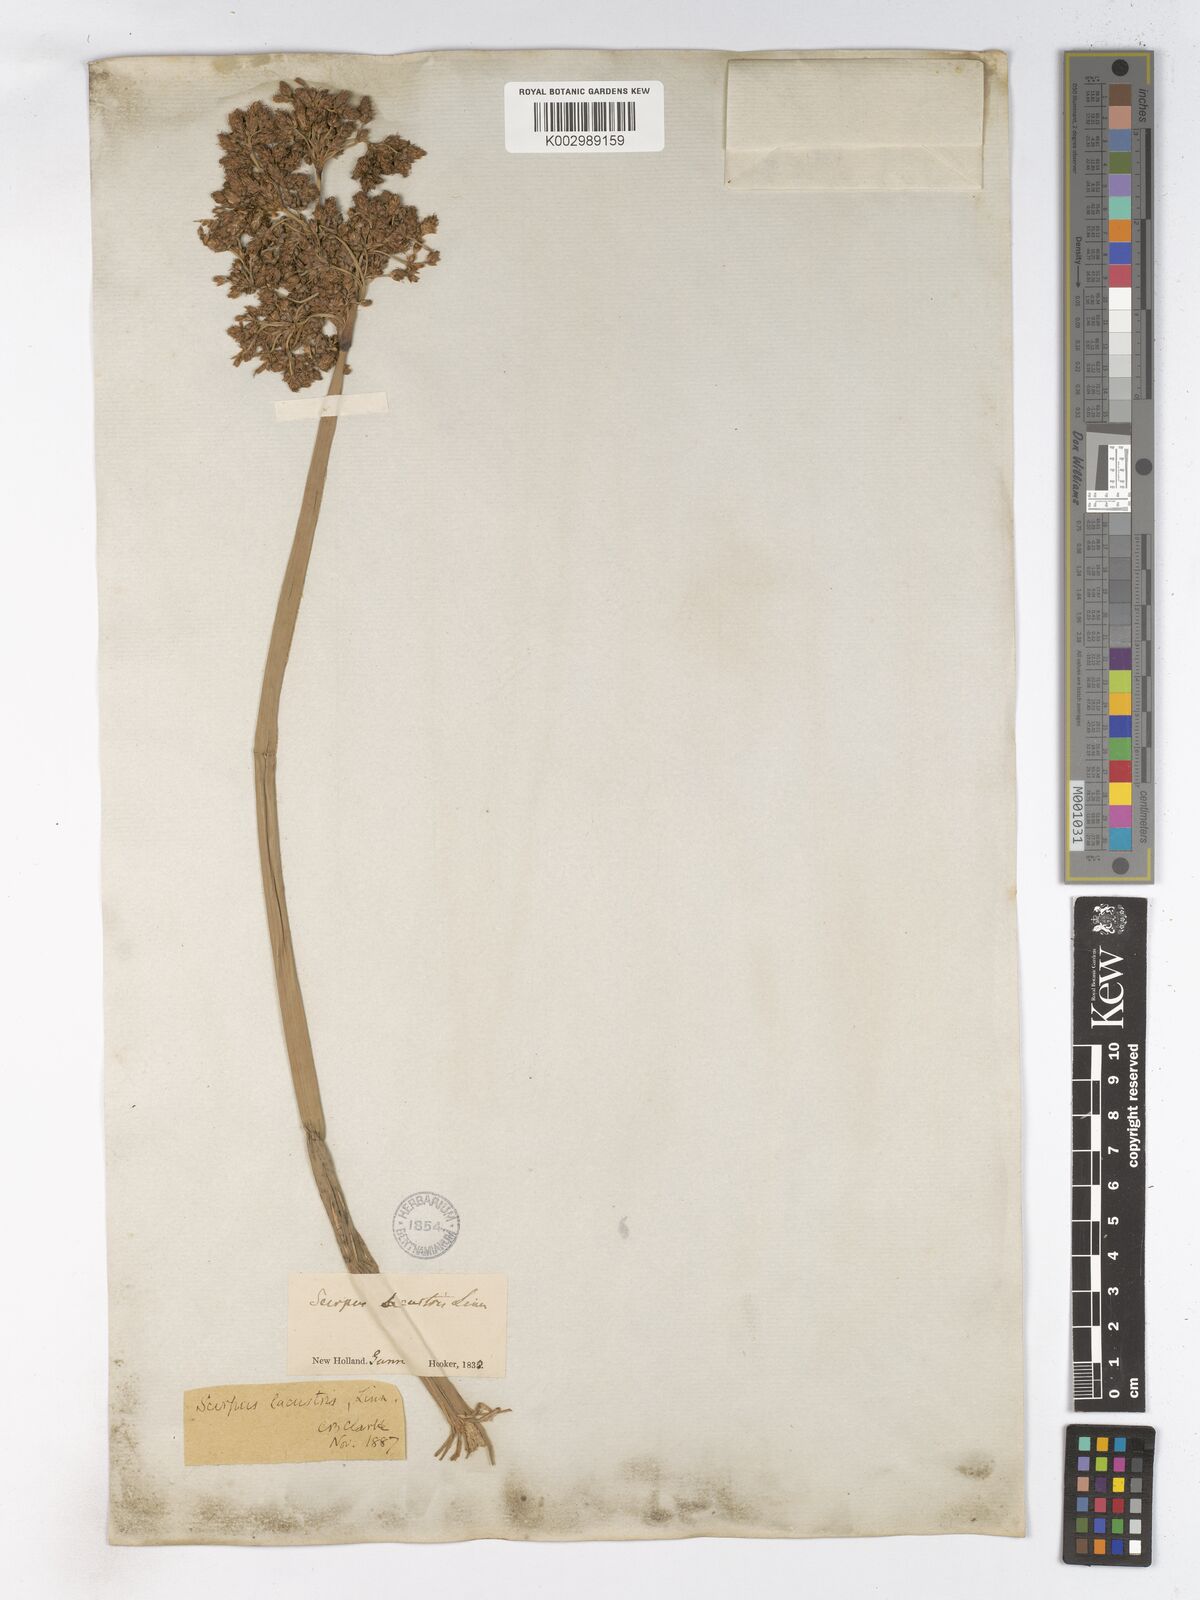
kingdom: Plantae
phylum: Tracheophyta
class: Liliopsida
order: Poales
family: Cyperaceae
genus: Schoenoplectus
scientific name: Schoenoplectus lacustris
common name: Common club-rush
